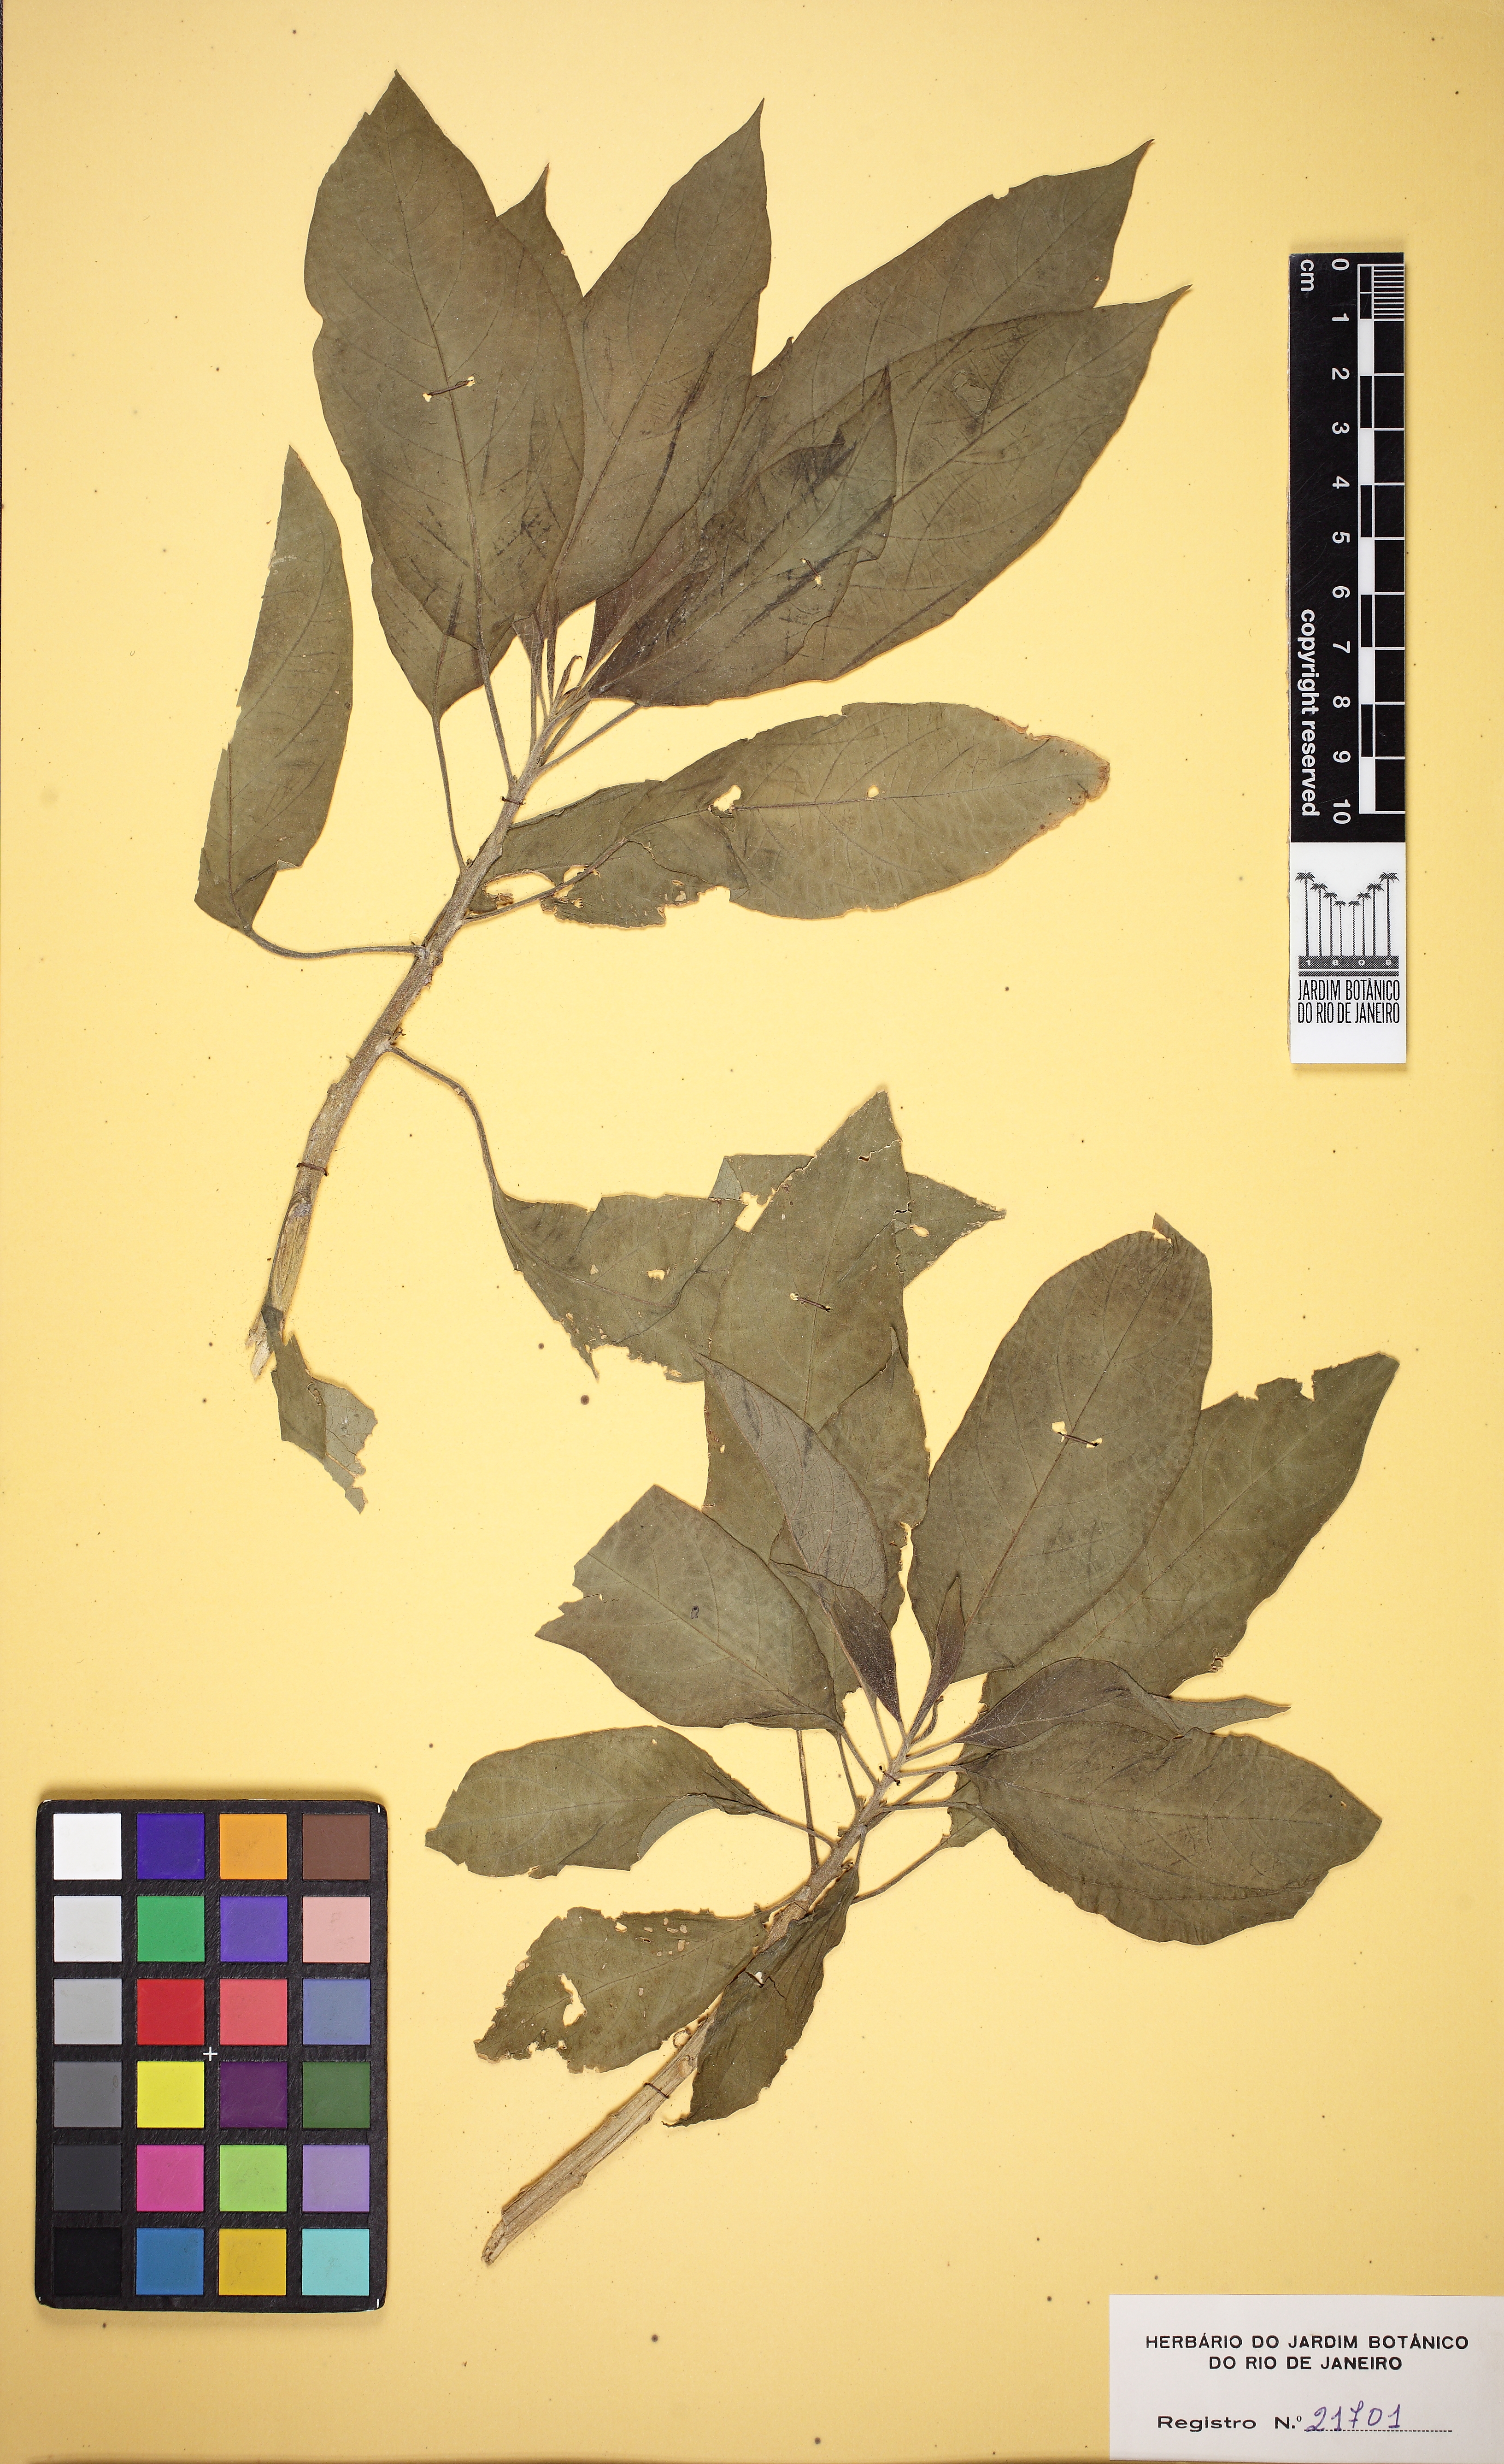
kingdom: Plantae
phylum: Tracheophyta
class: Magnoliopsida
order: Solanales
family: Solanaceae
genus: Brugmansia
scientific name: Brugmansia suaveolens
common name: Angel's tears
